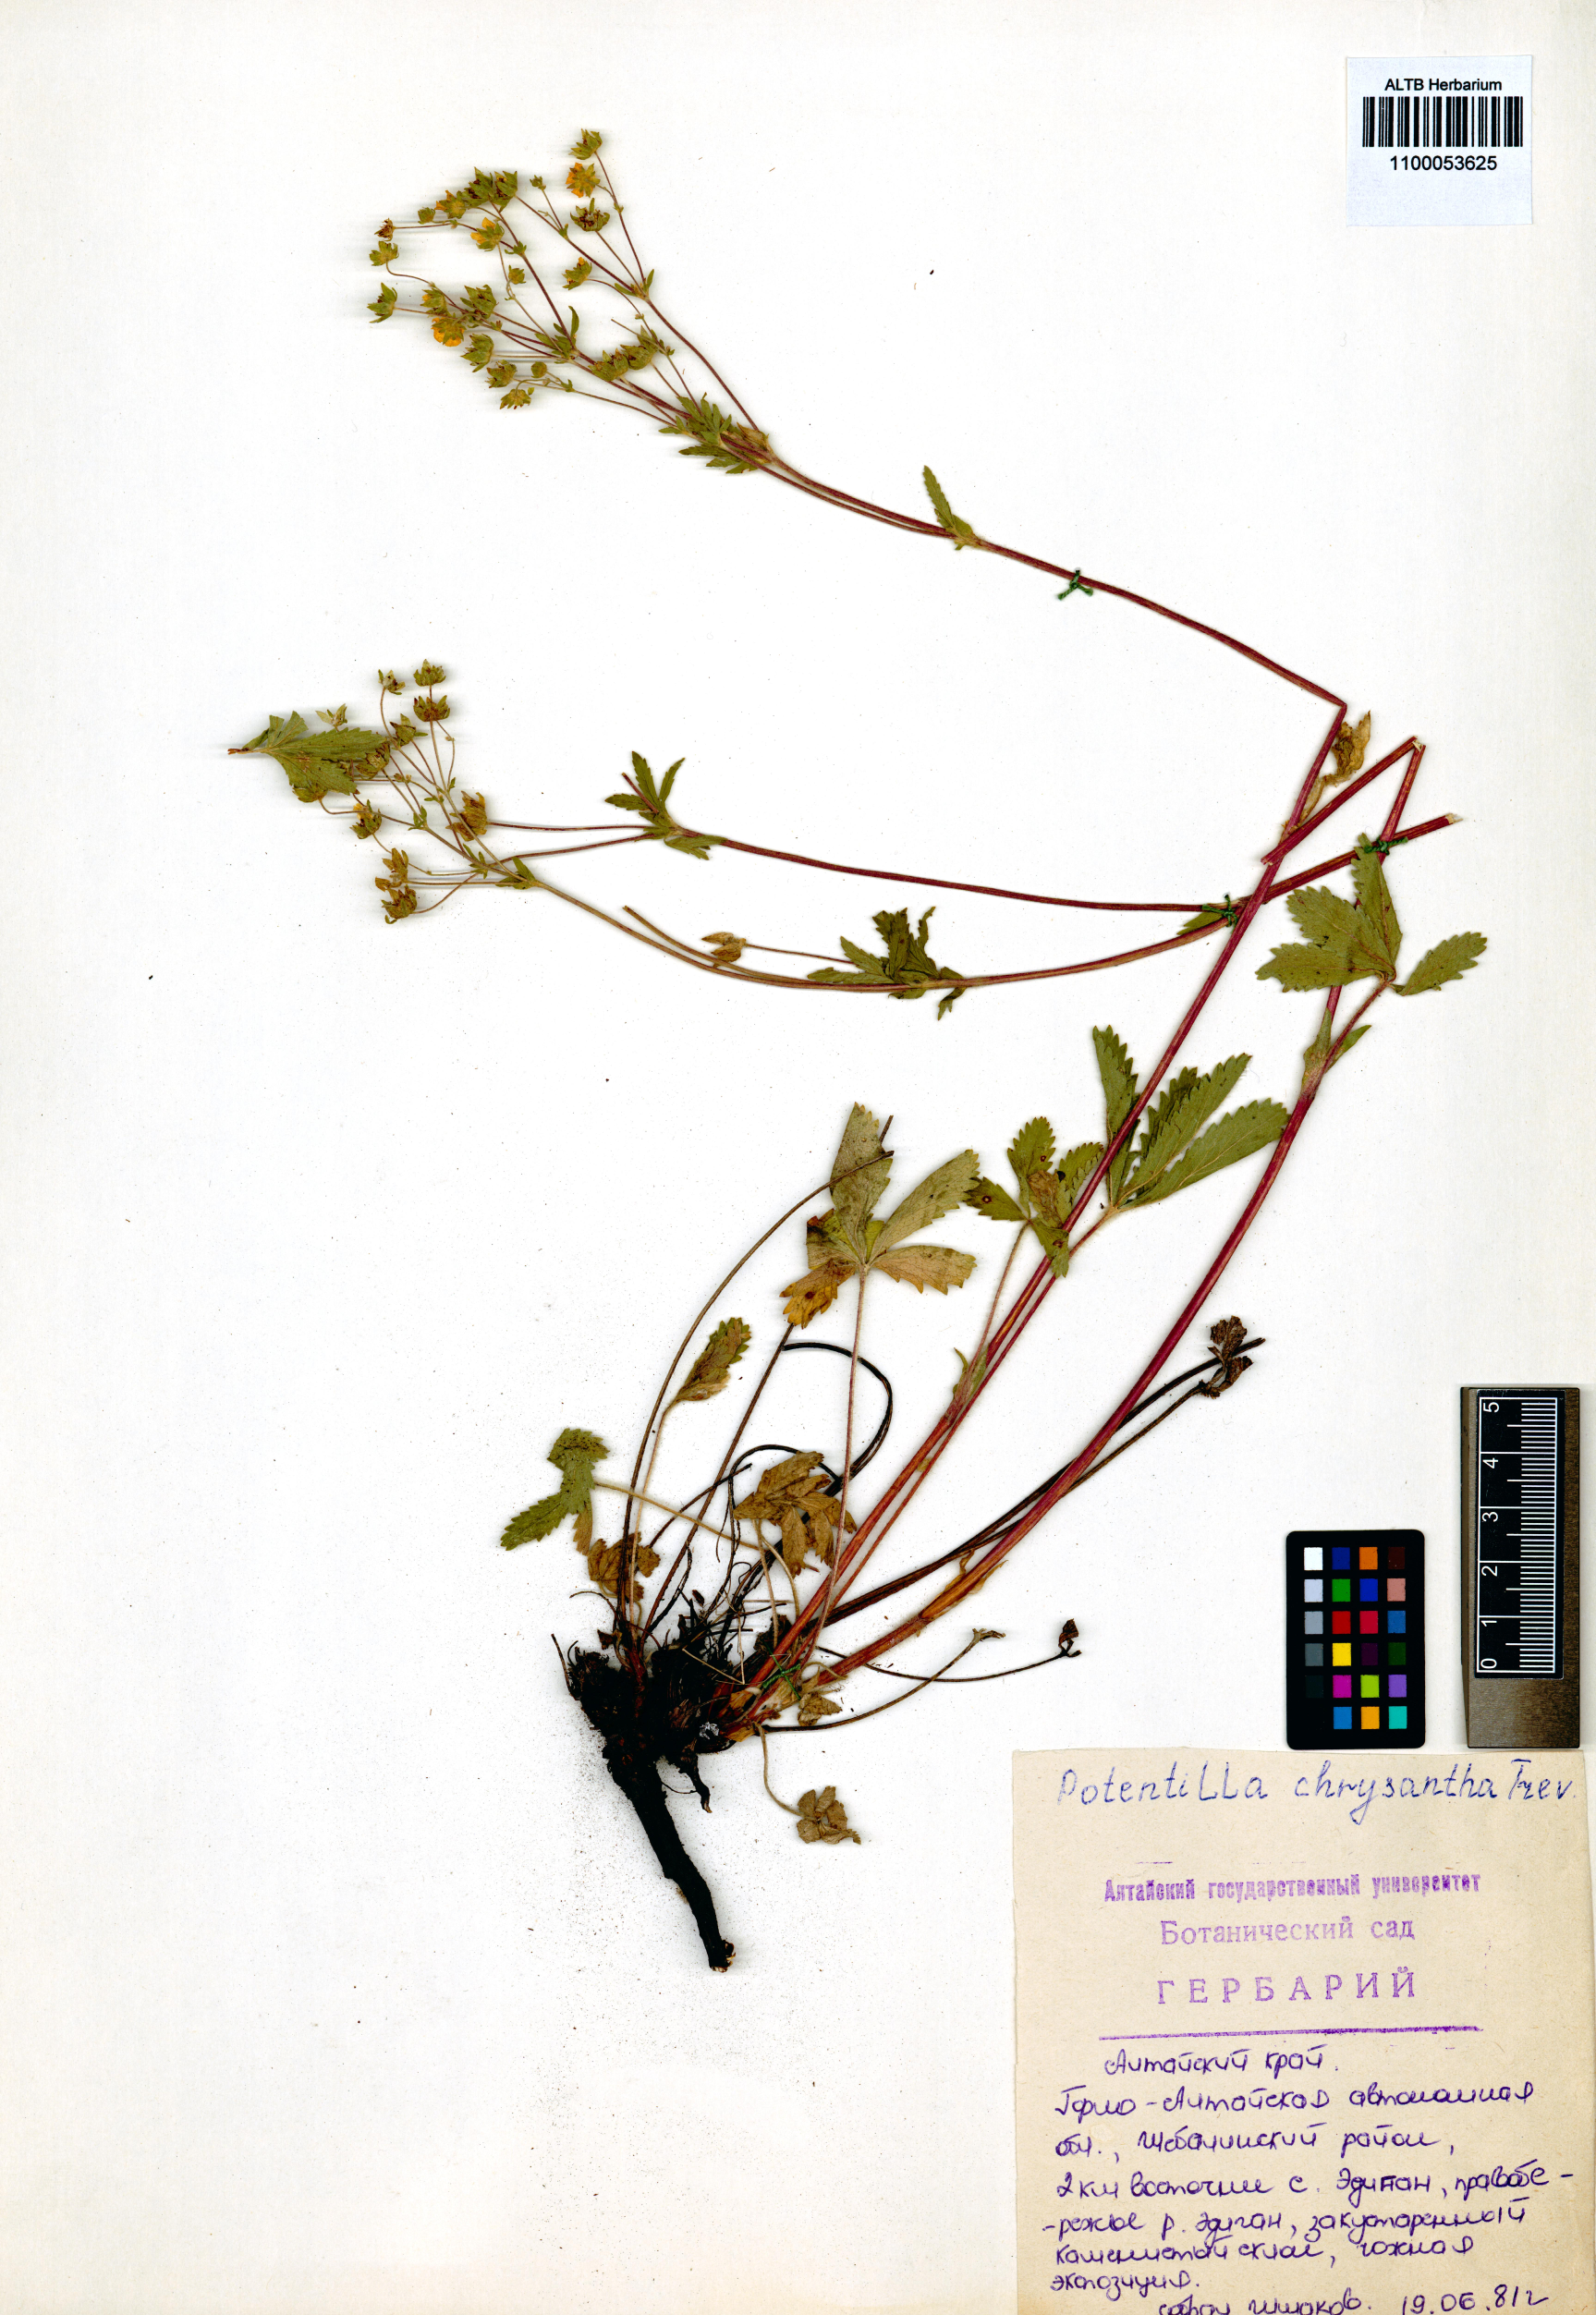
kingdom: Plantae
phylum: Tracheophyta
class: Magnoliopsida
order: Rosales
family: Rosaceae
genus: Potentilla
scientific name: Potentilla chrysantha
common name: Thuringian cinquefoil
